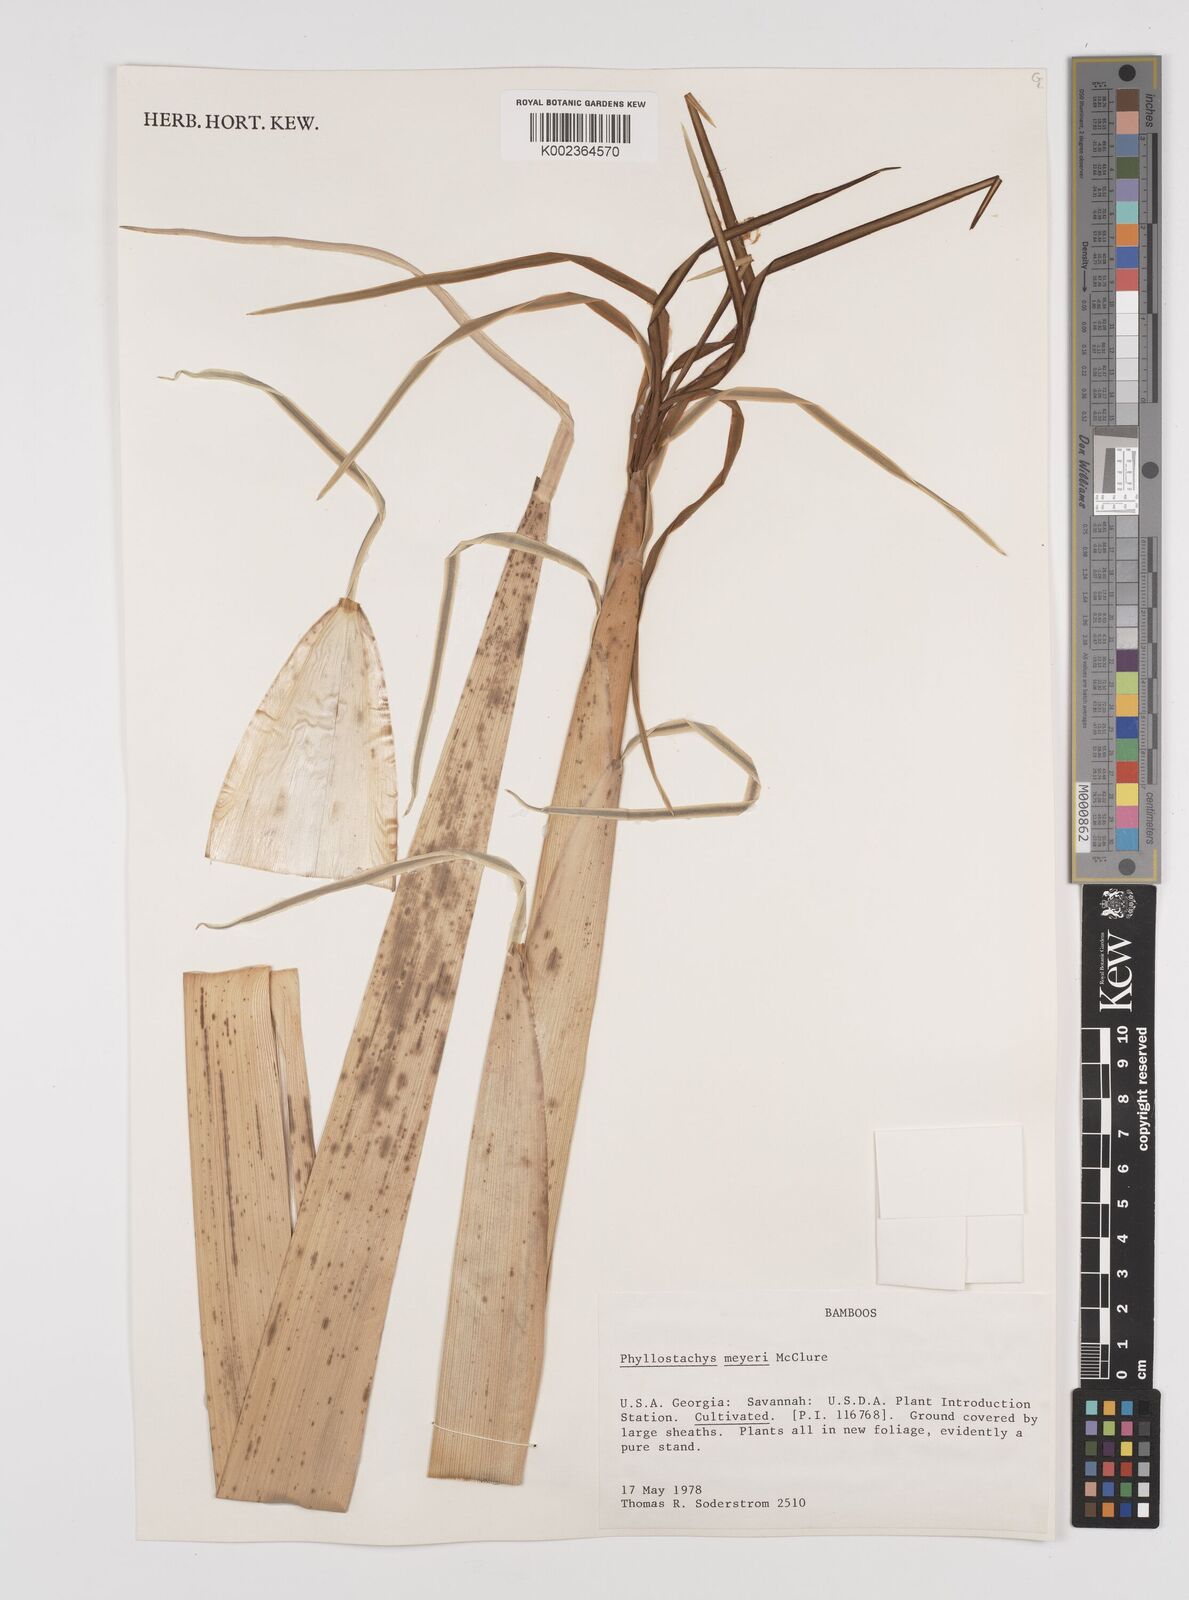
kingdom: Plantae
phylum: Tracheophyta
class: Liliopsida
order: Poales
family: Poaceae
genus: Phyllostachys
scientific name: Phyllostachys meyeri
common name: Meyer's bamboo
